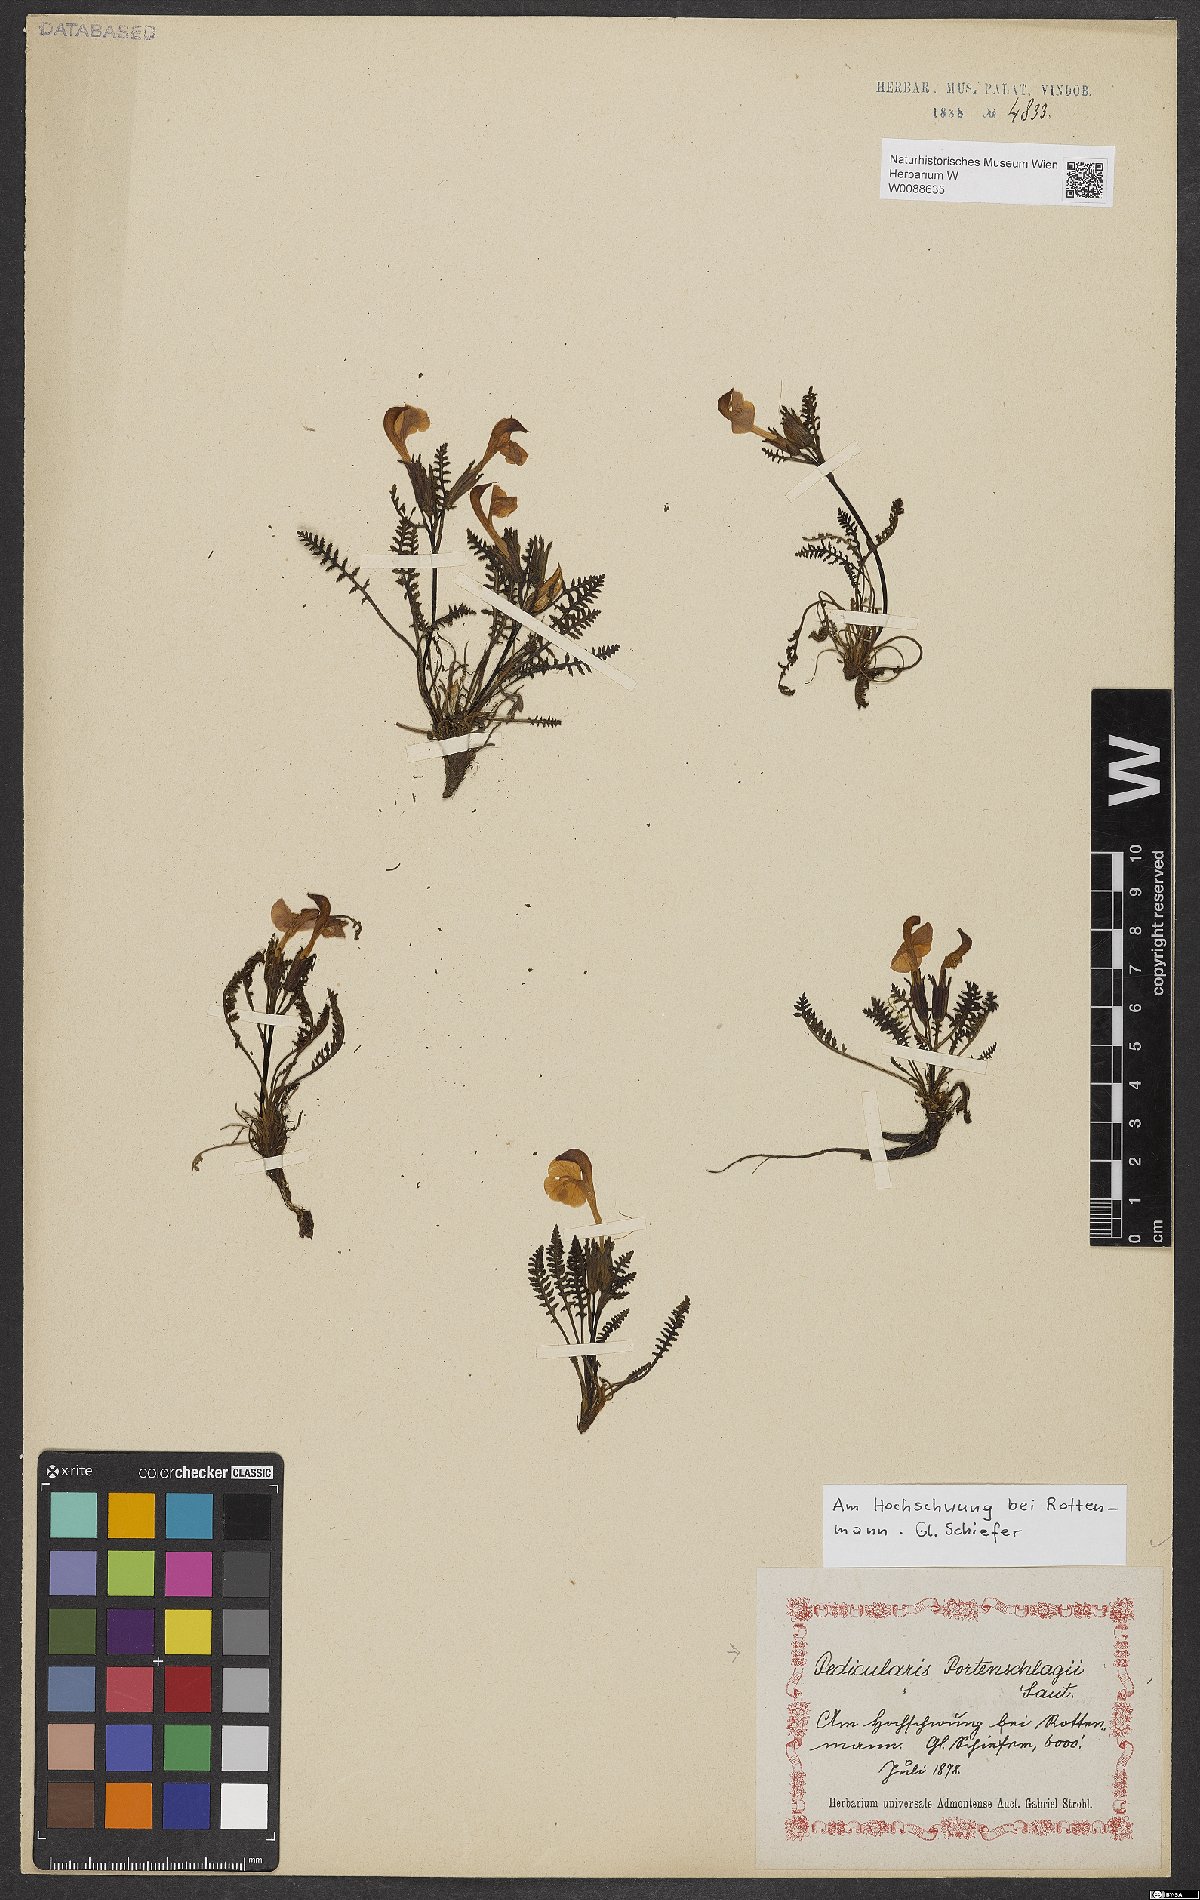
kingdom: Plantae
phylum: Tracheophyta
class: Magnoliopsida
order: Lamiales
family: Orobanchaceae
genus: Pedicularis
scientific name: Pedicularis portenschlagii
